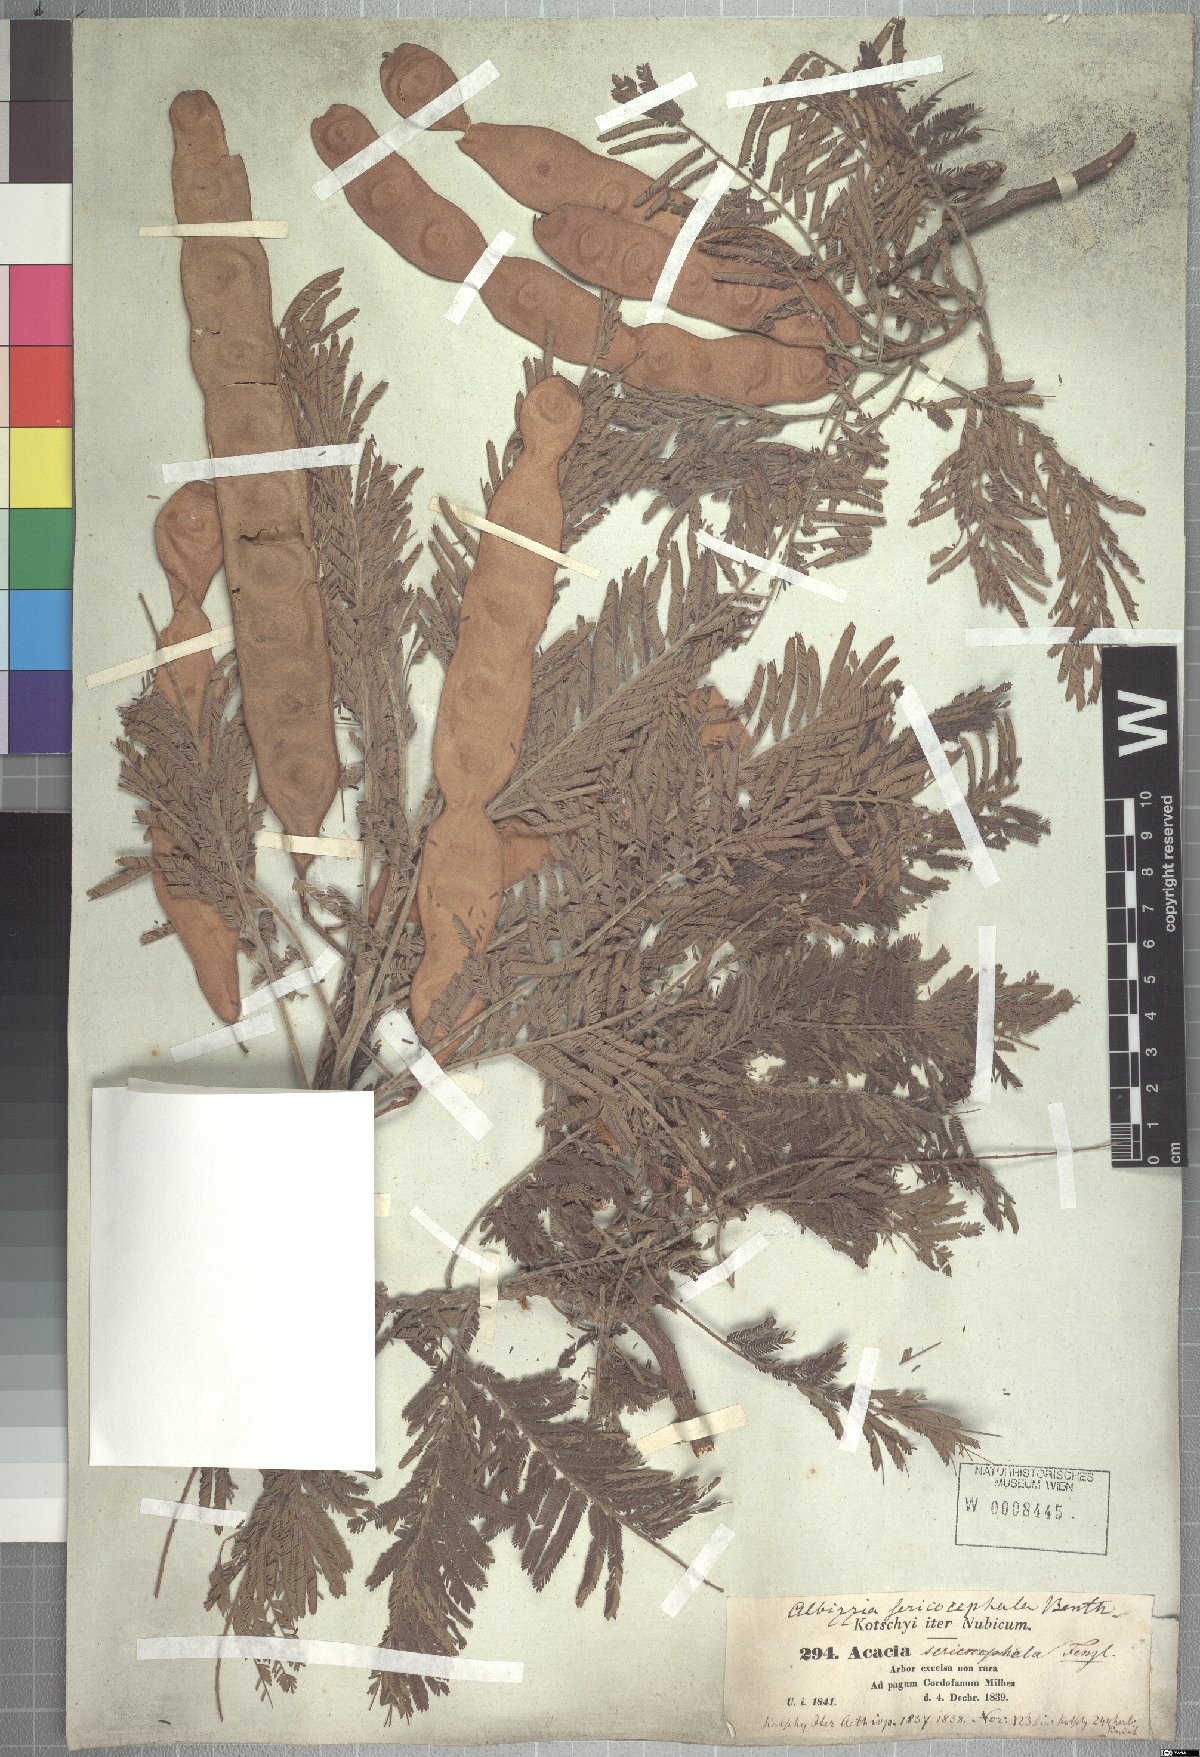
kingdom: Plantae
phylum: Tracheophyta
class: Magnoliopsida
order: Fabales
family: Fabaceae
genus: Albizia
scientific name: Albizia amara
